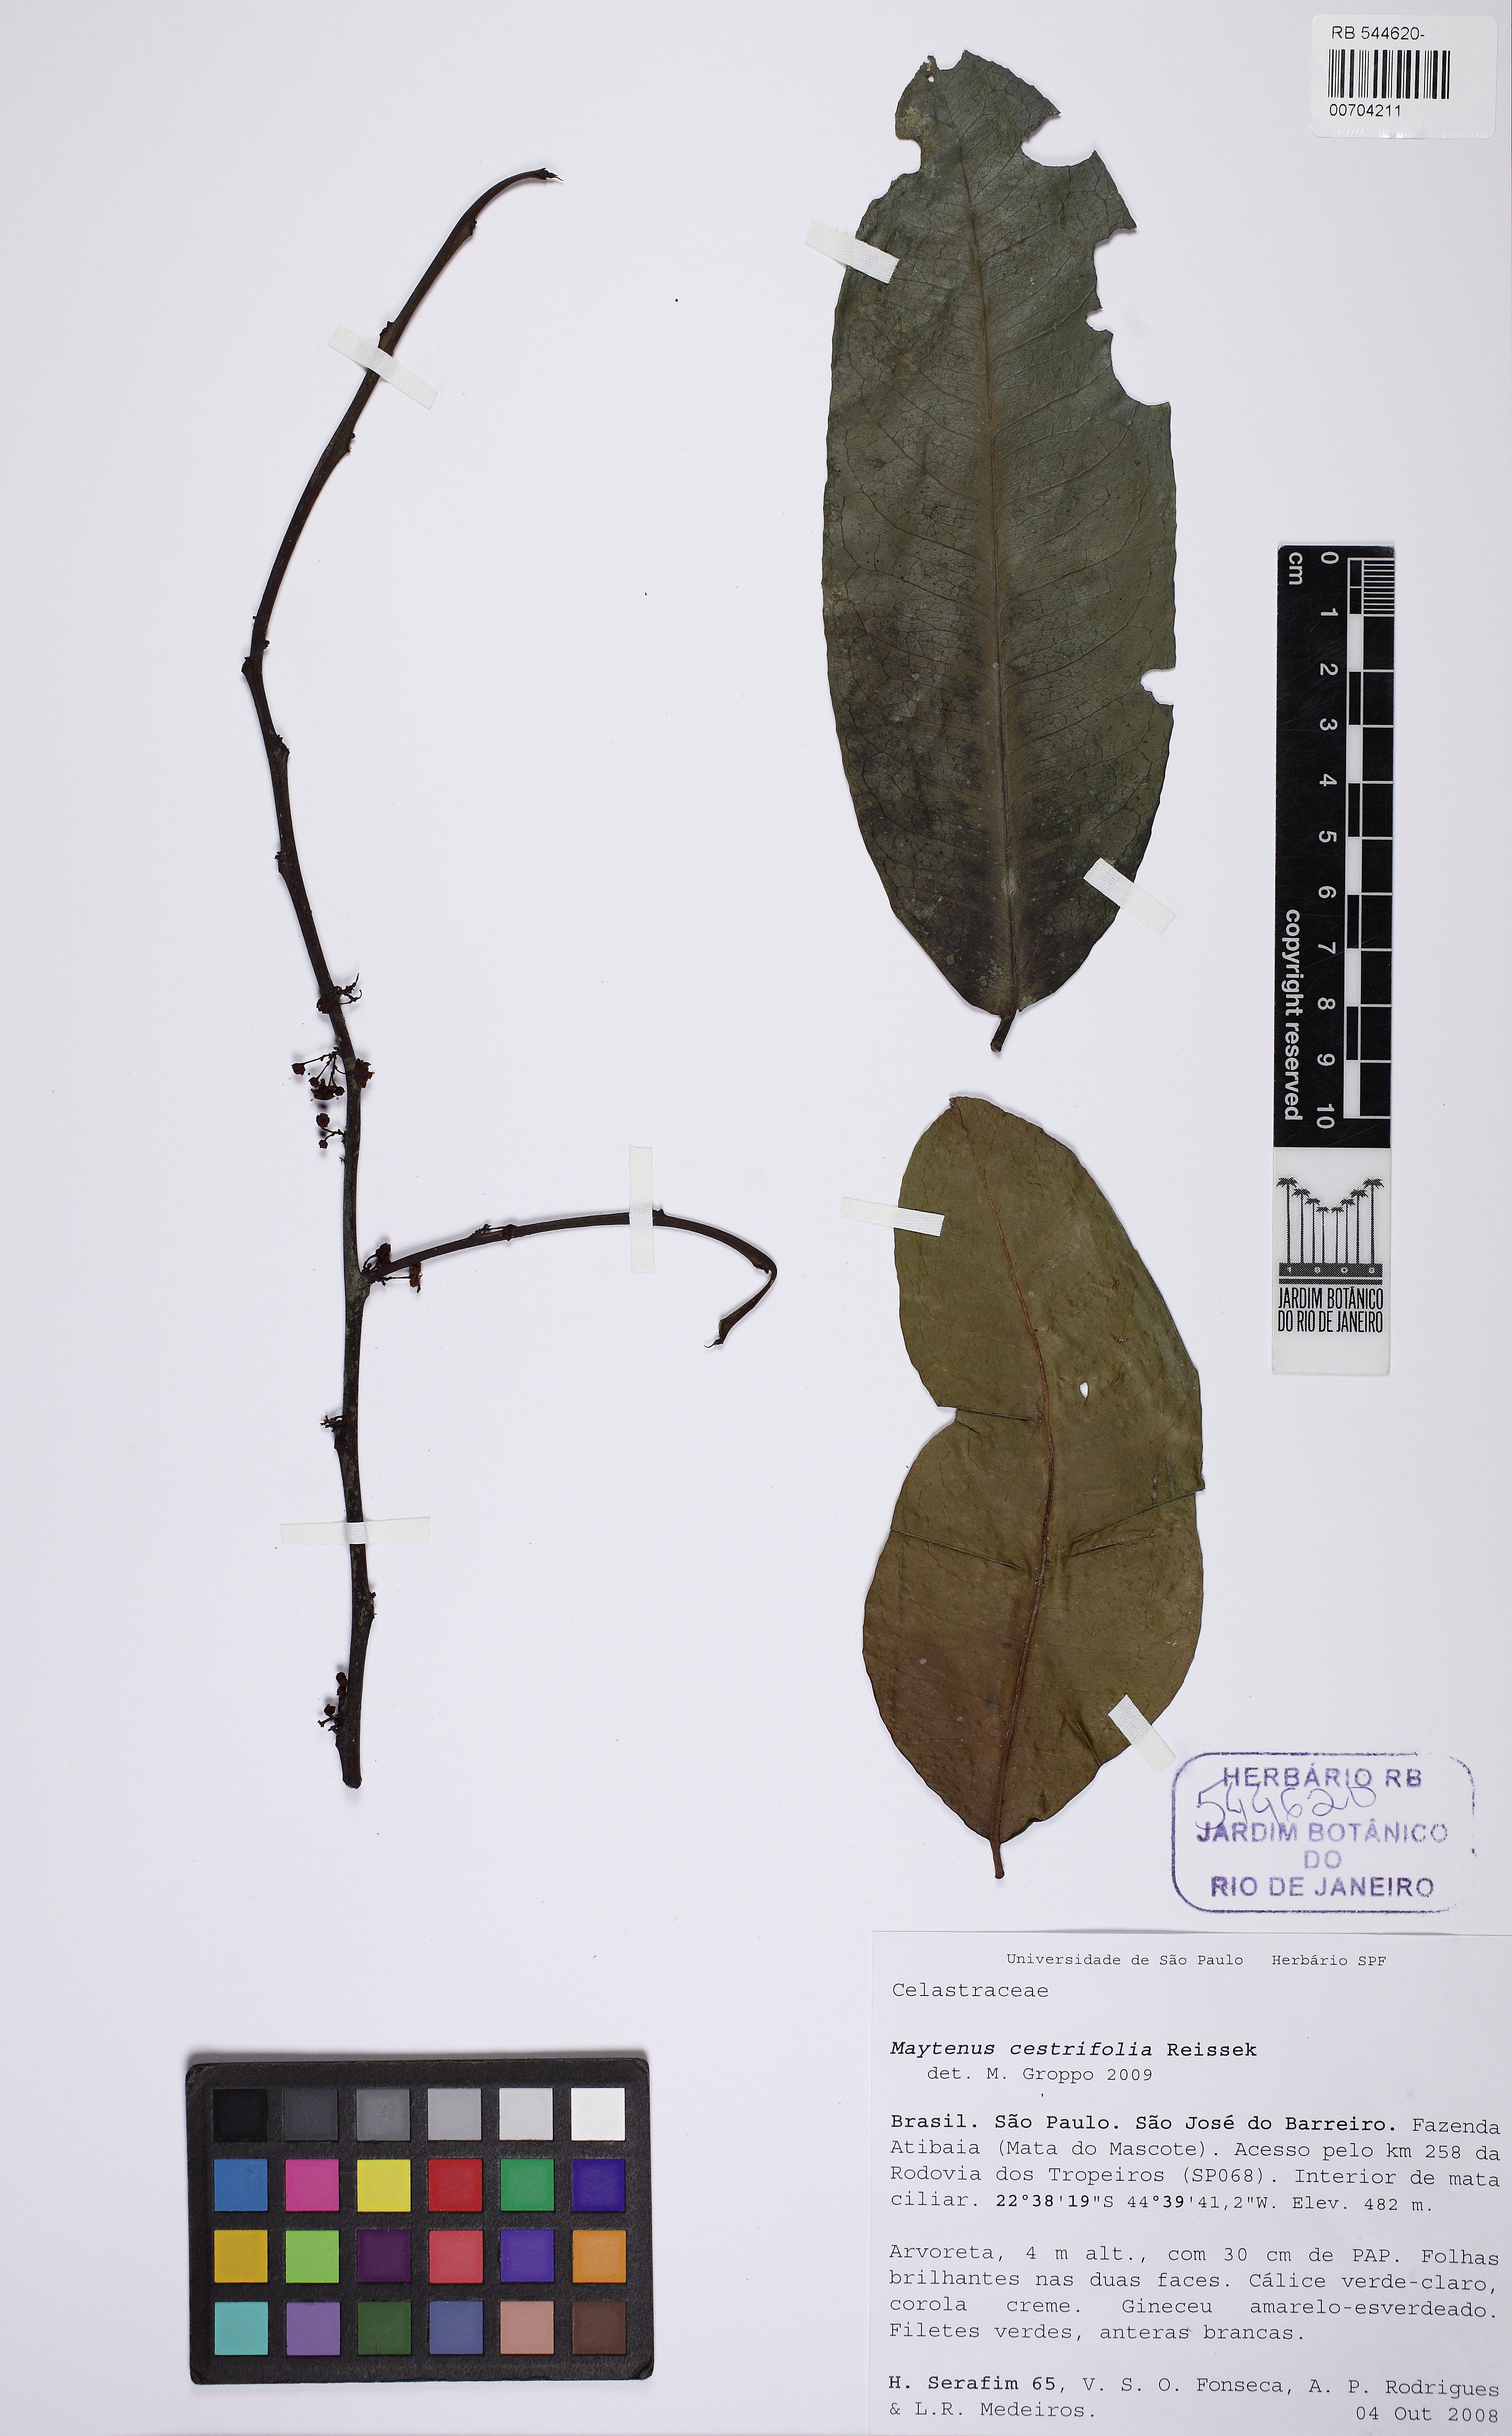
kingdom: Plantae
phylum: Tracheophyta
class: Magnoliopsida
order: Celastrales
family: Celastraceae
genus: Monteverdia
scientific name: Monteverdia schumanniana
